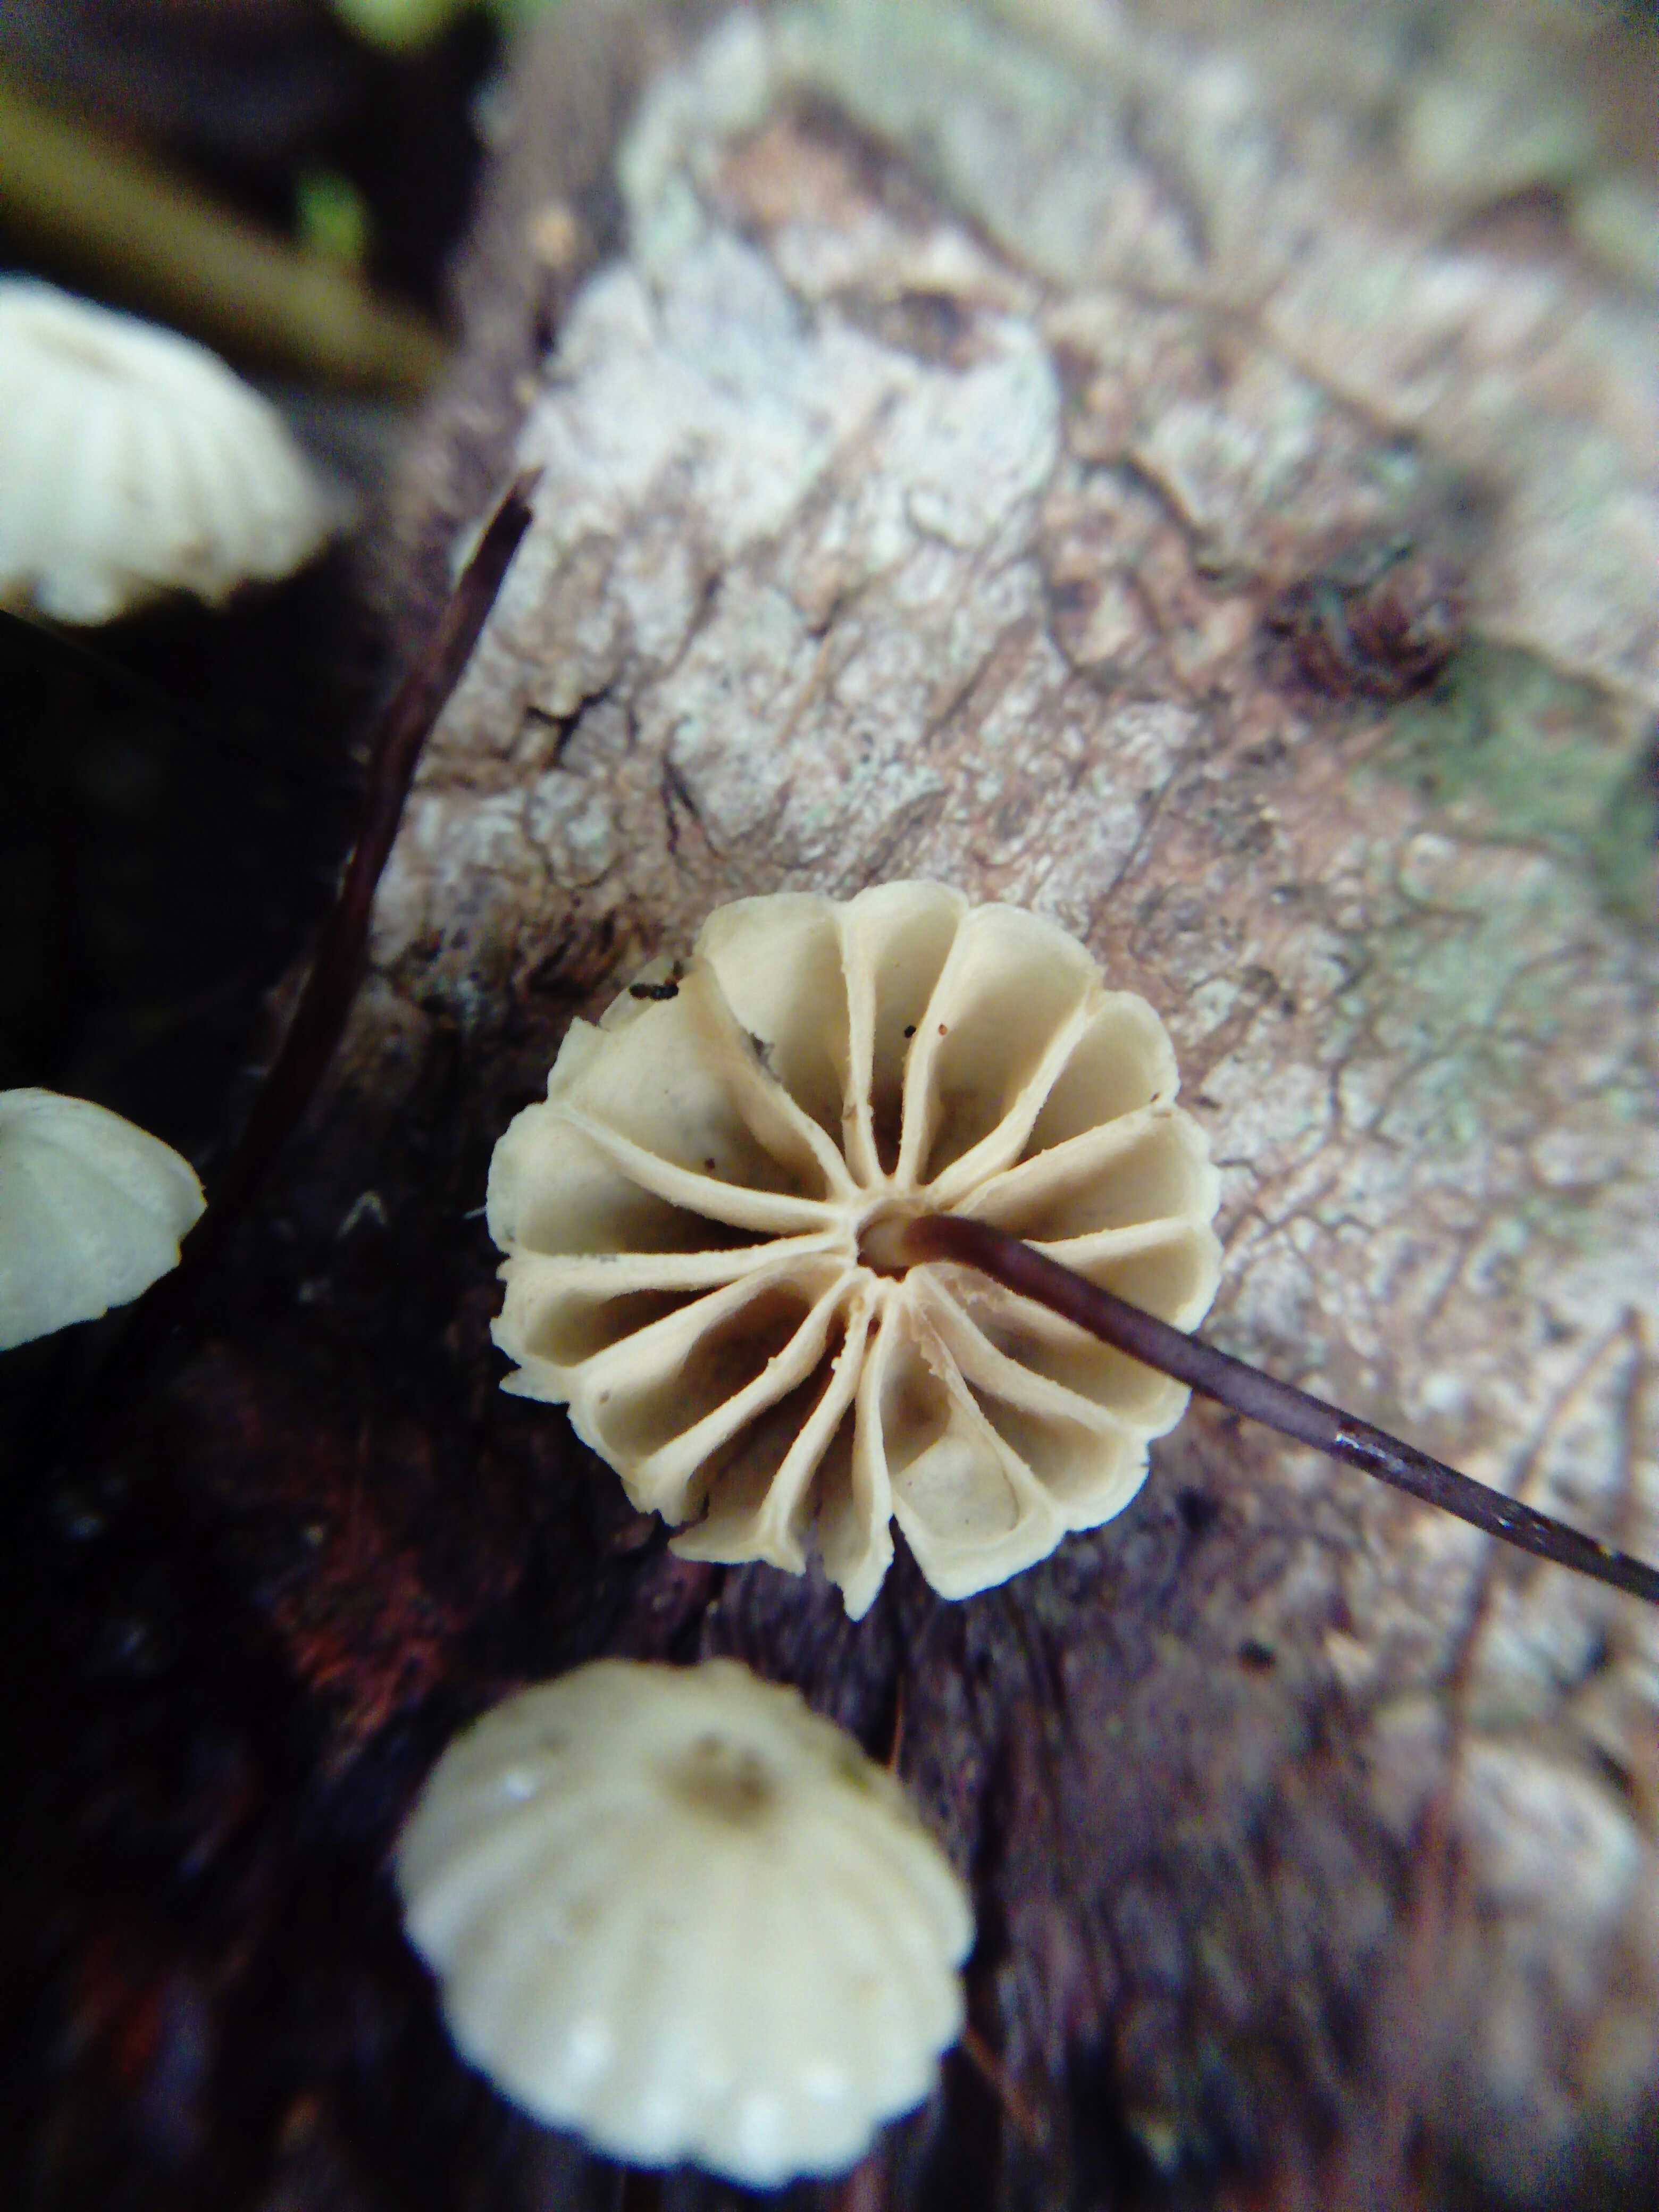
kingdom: Fungi
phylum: Basidiomycota
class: Agaricomycetes
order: Agaricales
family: Marasmiaceae
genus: Marasmius
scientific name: Marasmius rotula
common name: hjul-bruskhat
